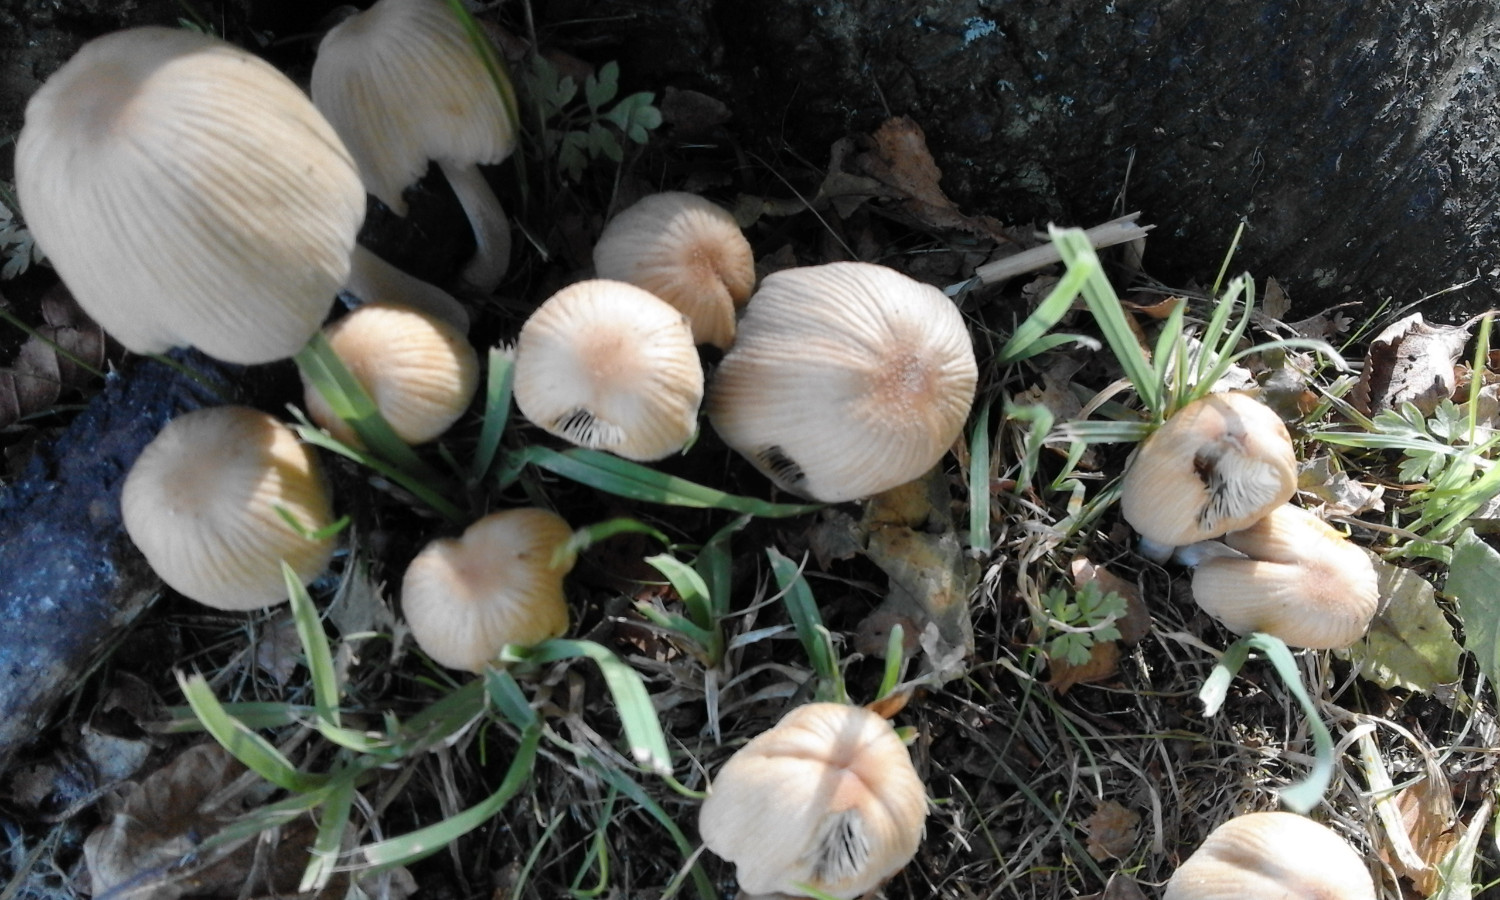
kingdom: Fungi
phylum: Basidiomycota
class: Agaricomycetes
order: Agaricales
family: Psathyrellaceae
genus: Coprinellus
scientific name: Coprinellus micaceus
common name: glimmer-blækhat
